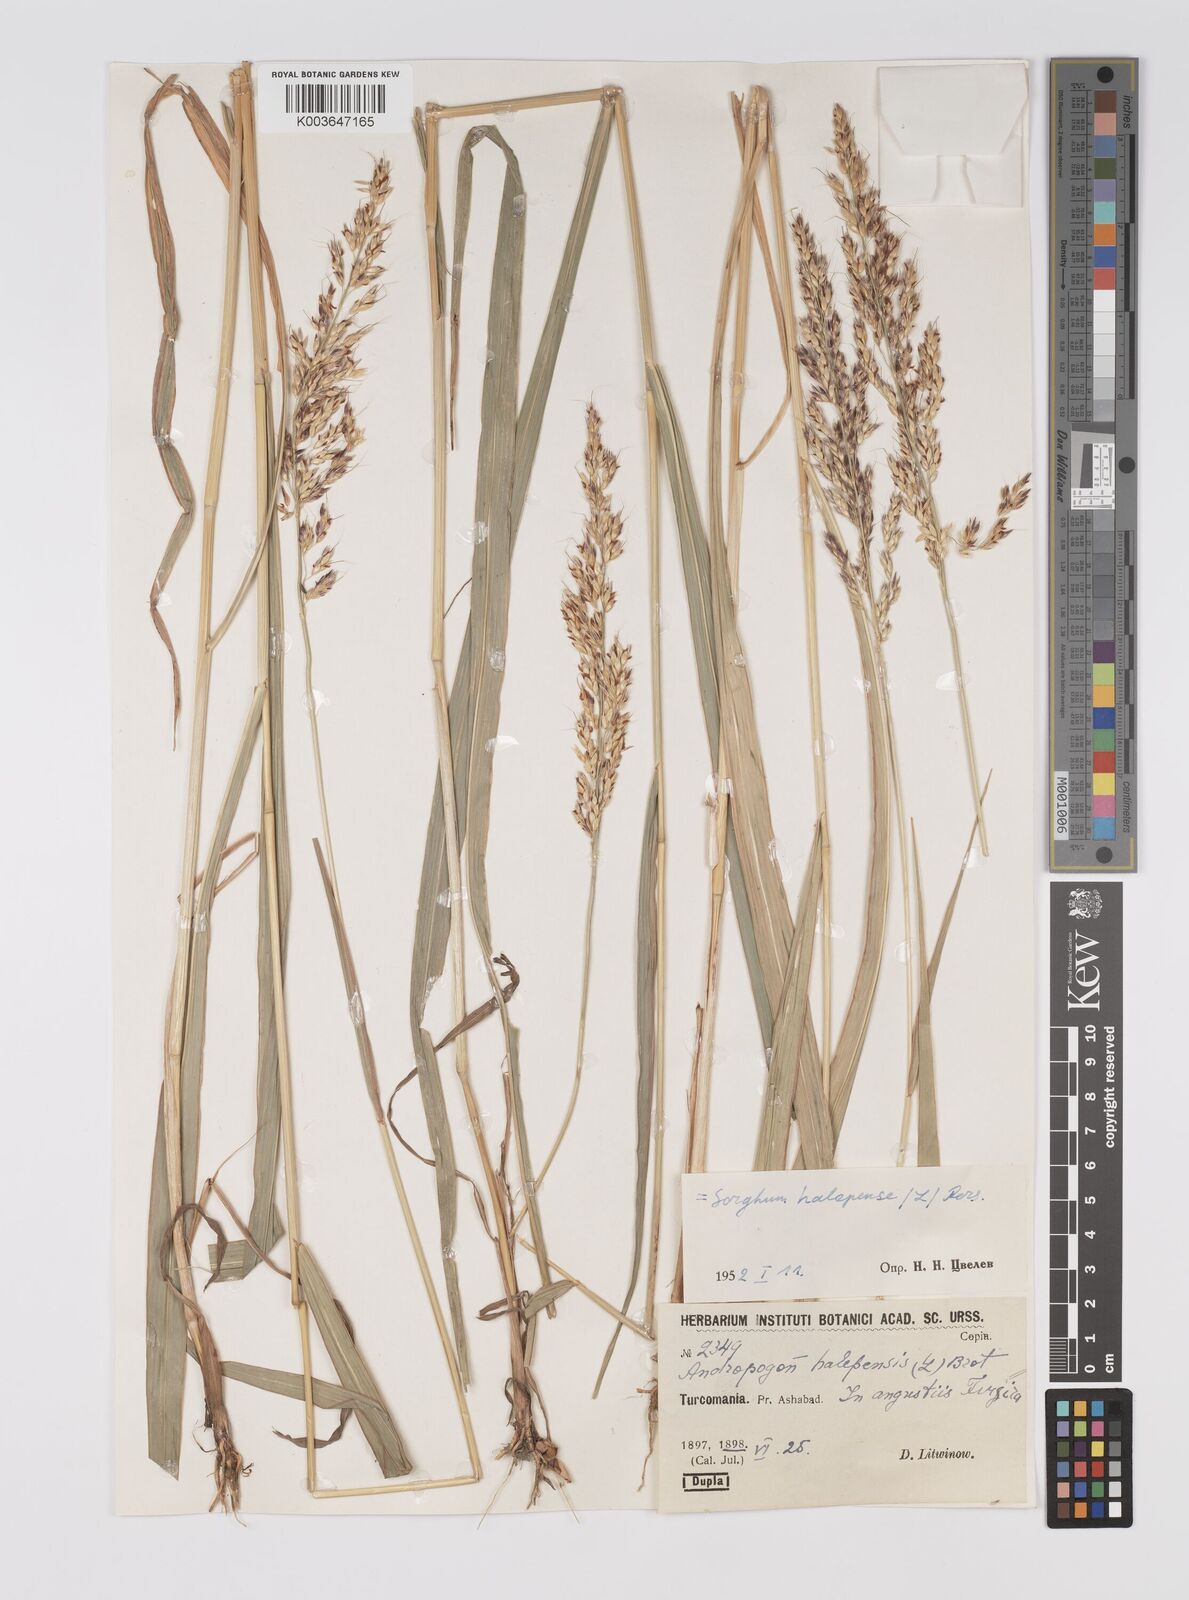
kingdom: Plantae
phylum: Tracheophyta
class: Liliopsida
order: Poales
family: Poaceae
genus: Sorghum
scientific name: Sorghum halepense
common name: Johnson-grass
